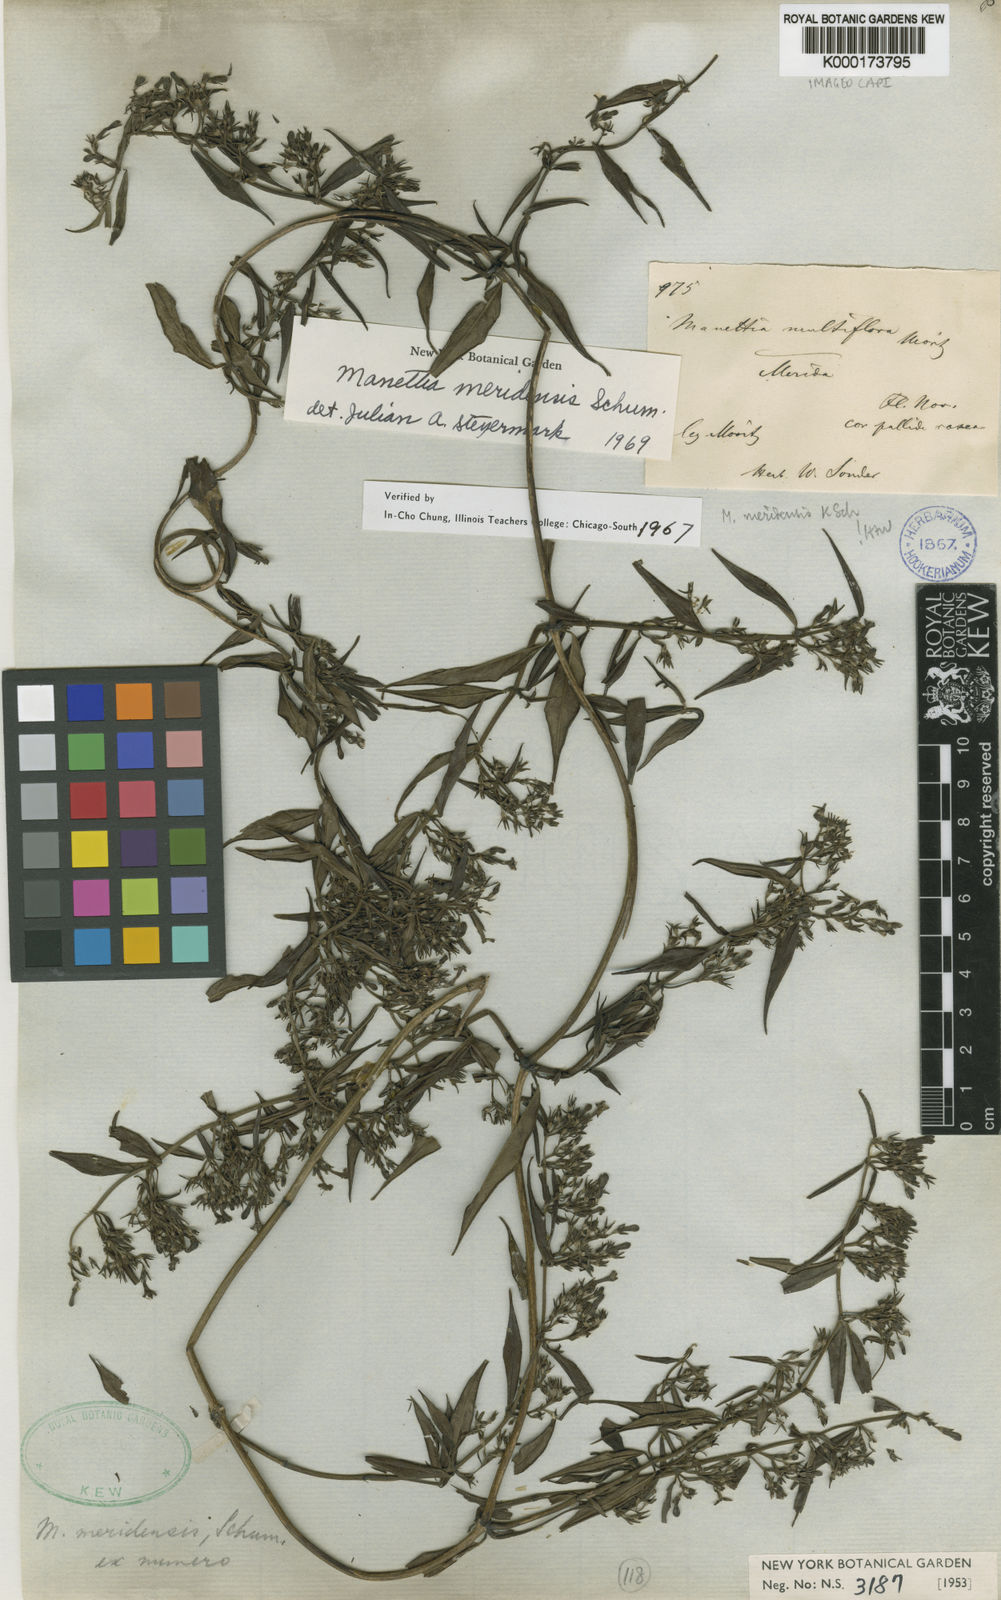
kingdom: Plantae
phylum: Tracheophyta
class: Magnoliopsida
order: Gentianales
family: Rubiaceae
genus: Manettia
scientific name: Manettia meridensis
